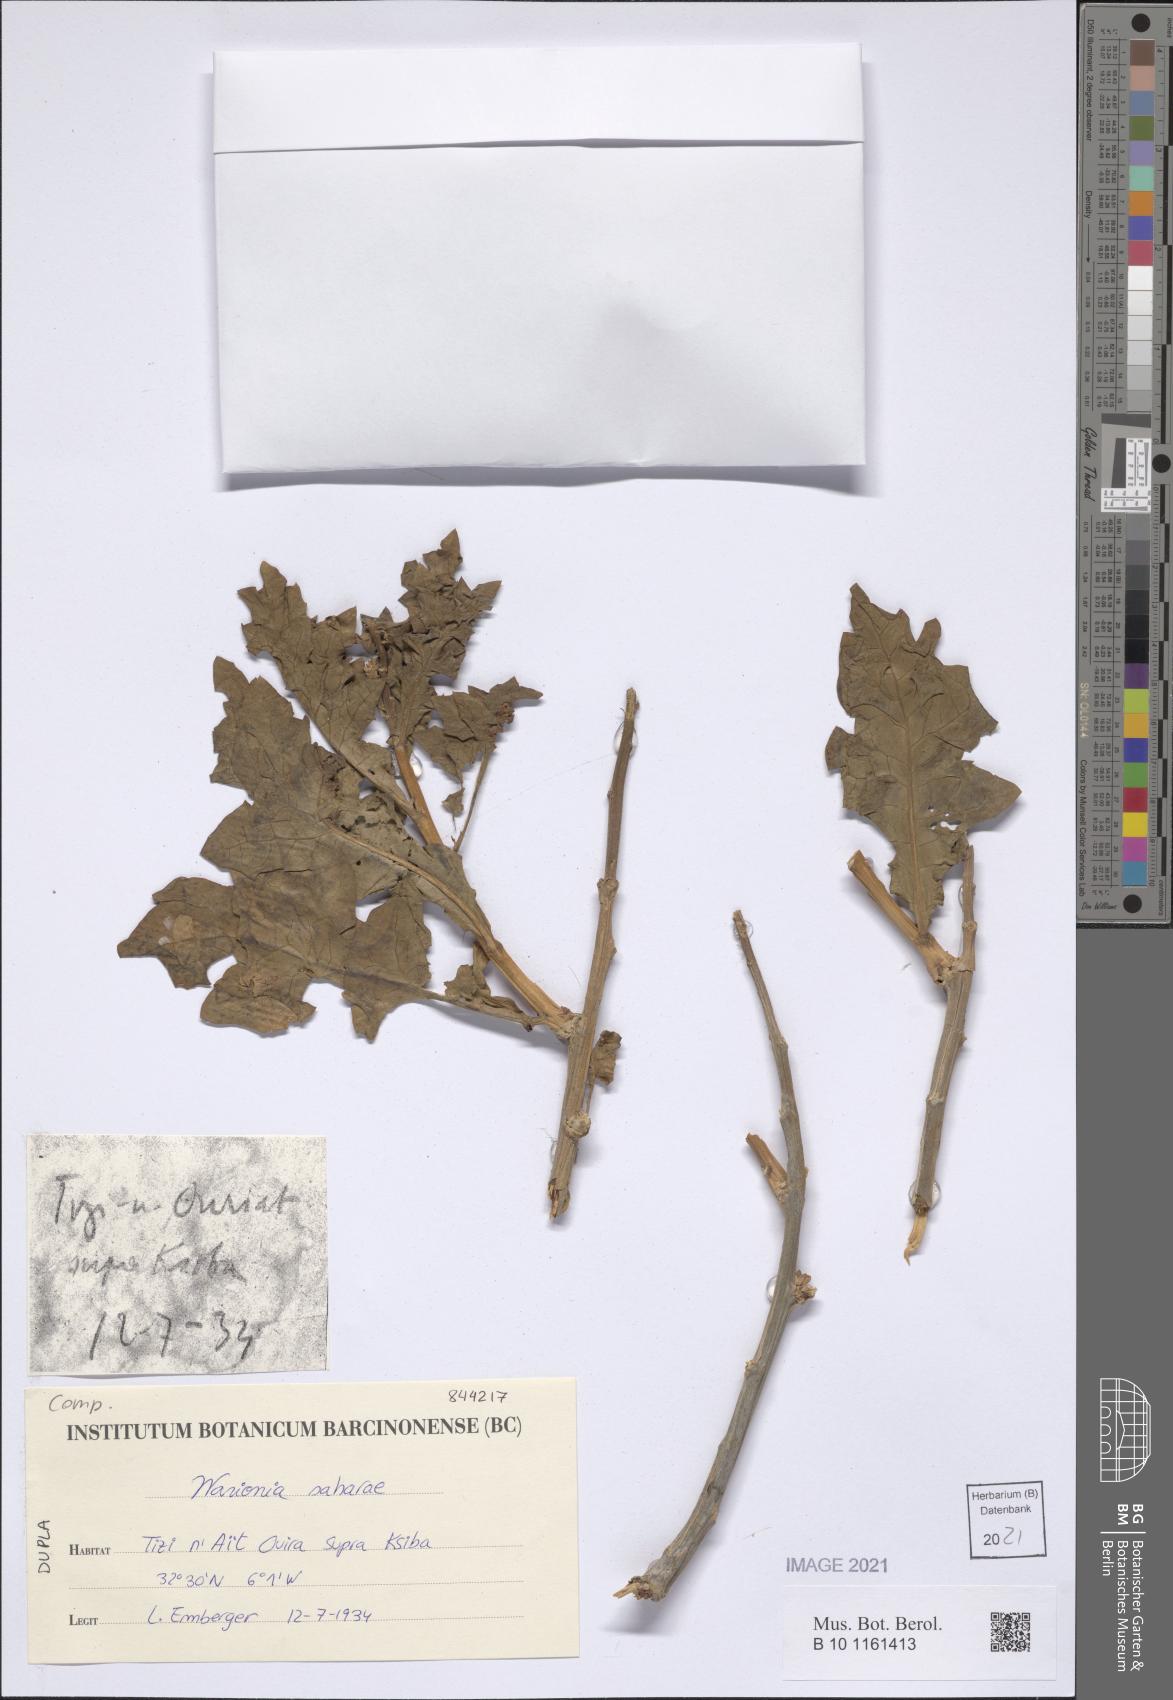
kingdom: Plantae
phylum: Tracheophyta
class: Magnoliopsida
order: Asterales
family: Asteraceae
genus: Warionia
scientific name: Warionia saharae
